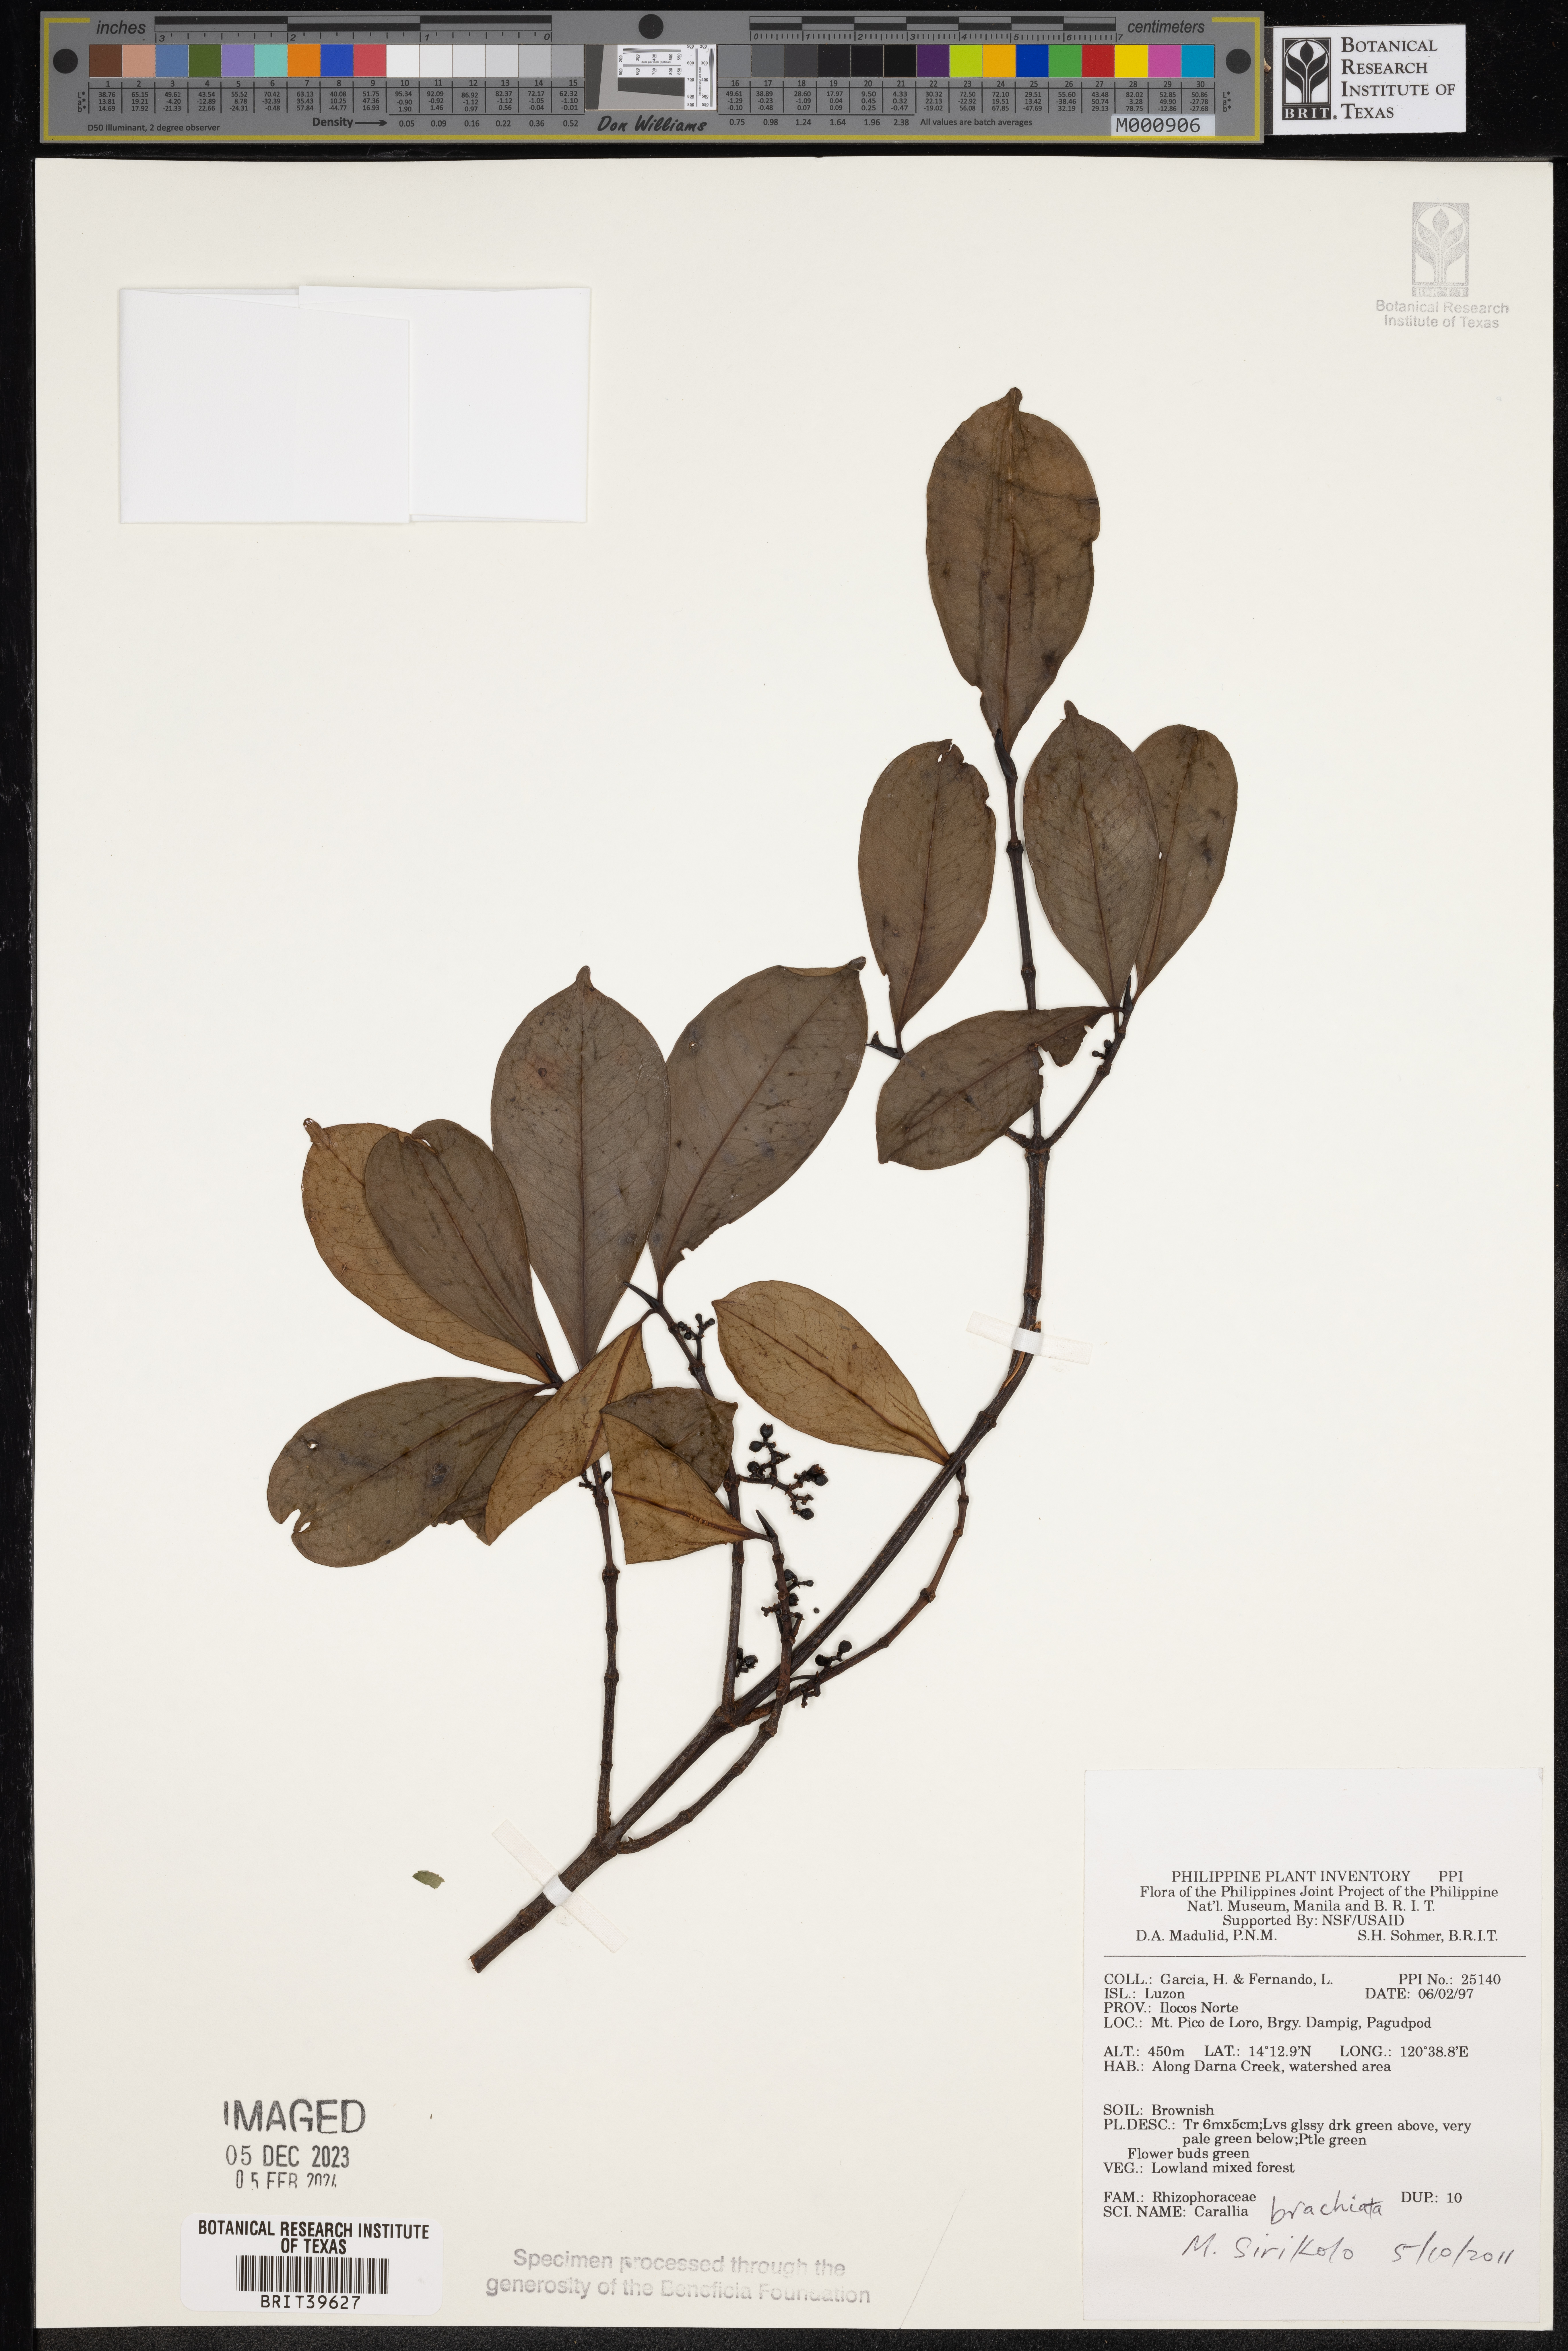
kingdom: Plantae
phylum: Tracheophyta
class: Magnoliopsida
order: Malpighiales
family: Rhizophoraceae
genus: Carallia
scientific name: Carallia brachiata
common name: Carallawood
